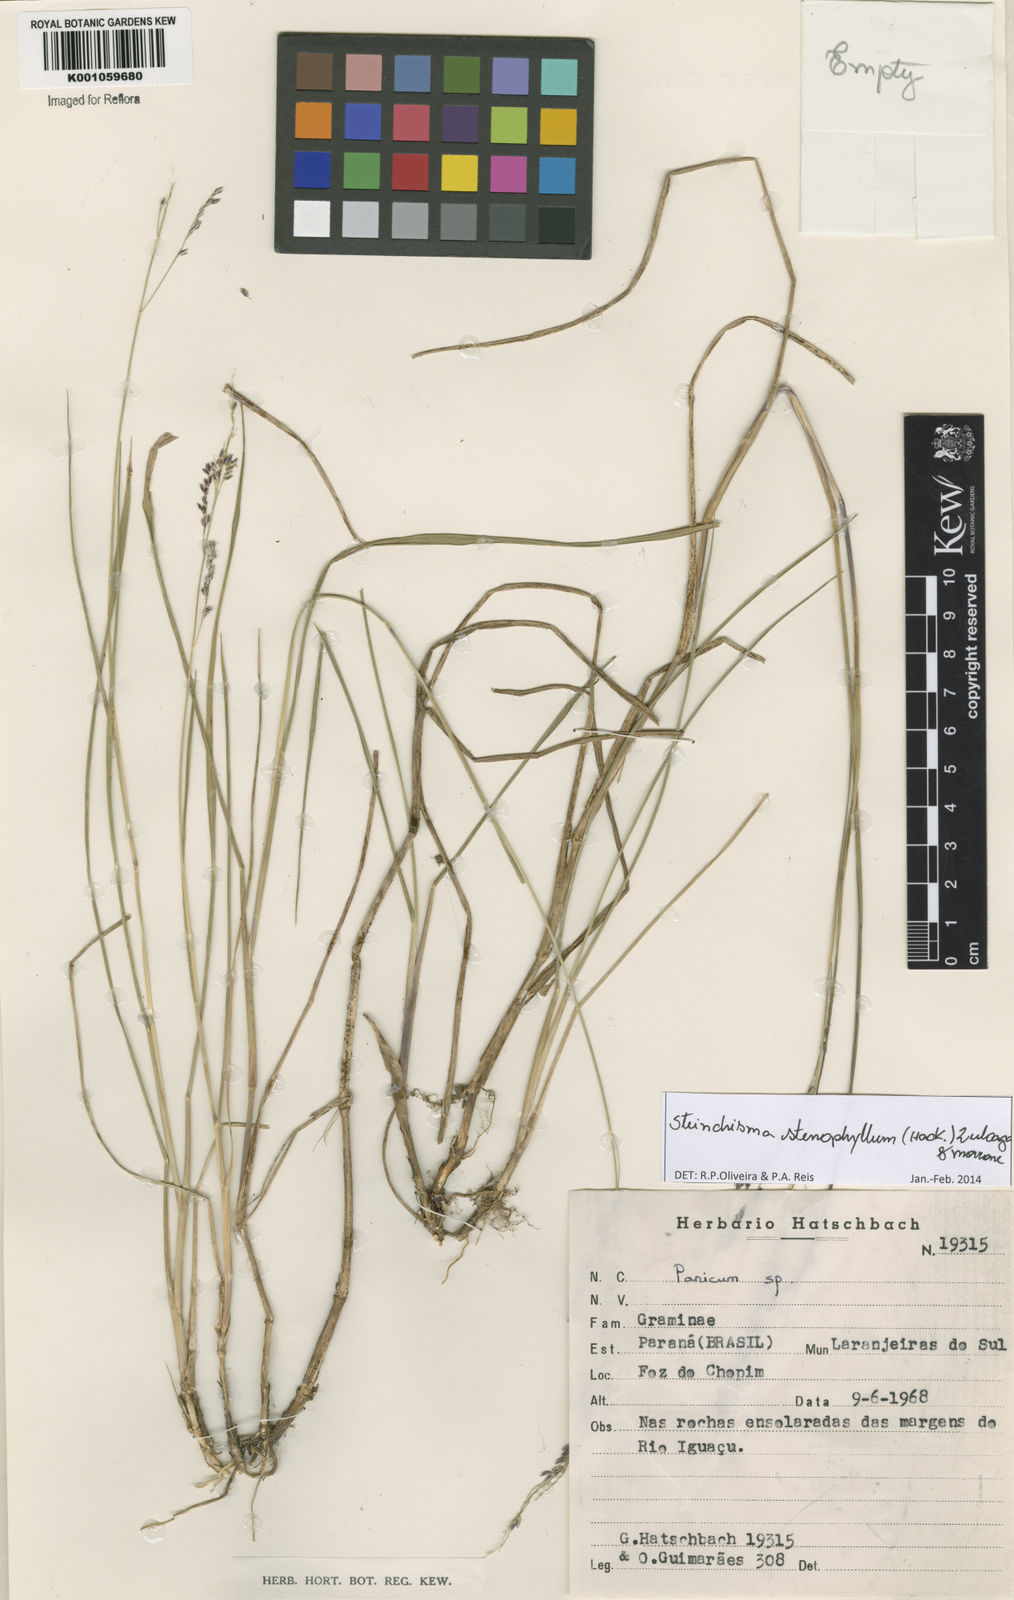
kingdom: Plantae
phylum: Tracheophyta
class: Liliopsida
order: Poales
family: Poaceae
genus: Steinchisma
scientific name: Steinchisma stenophyllum
